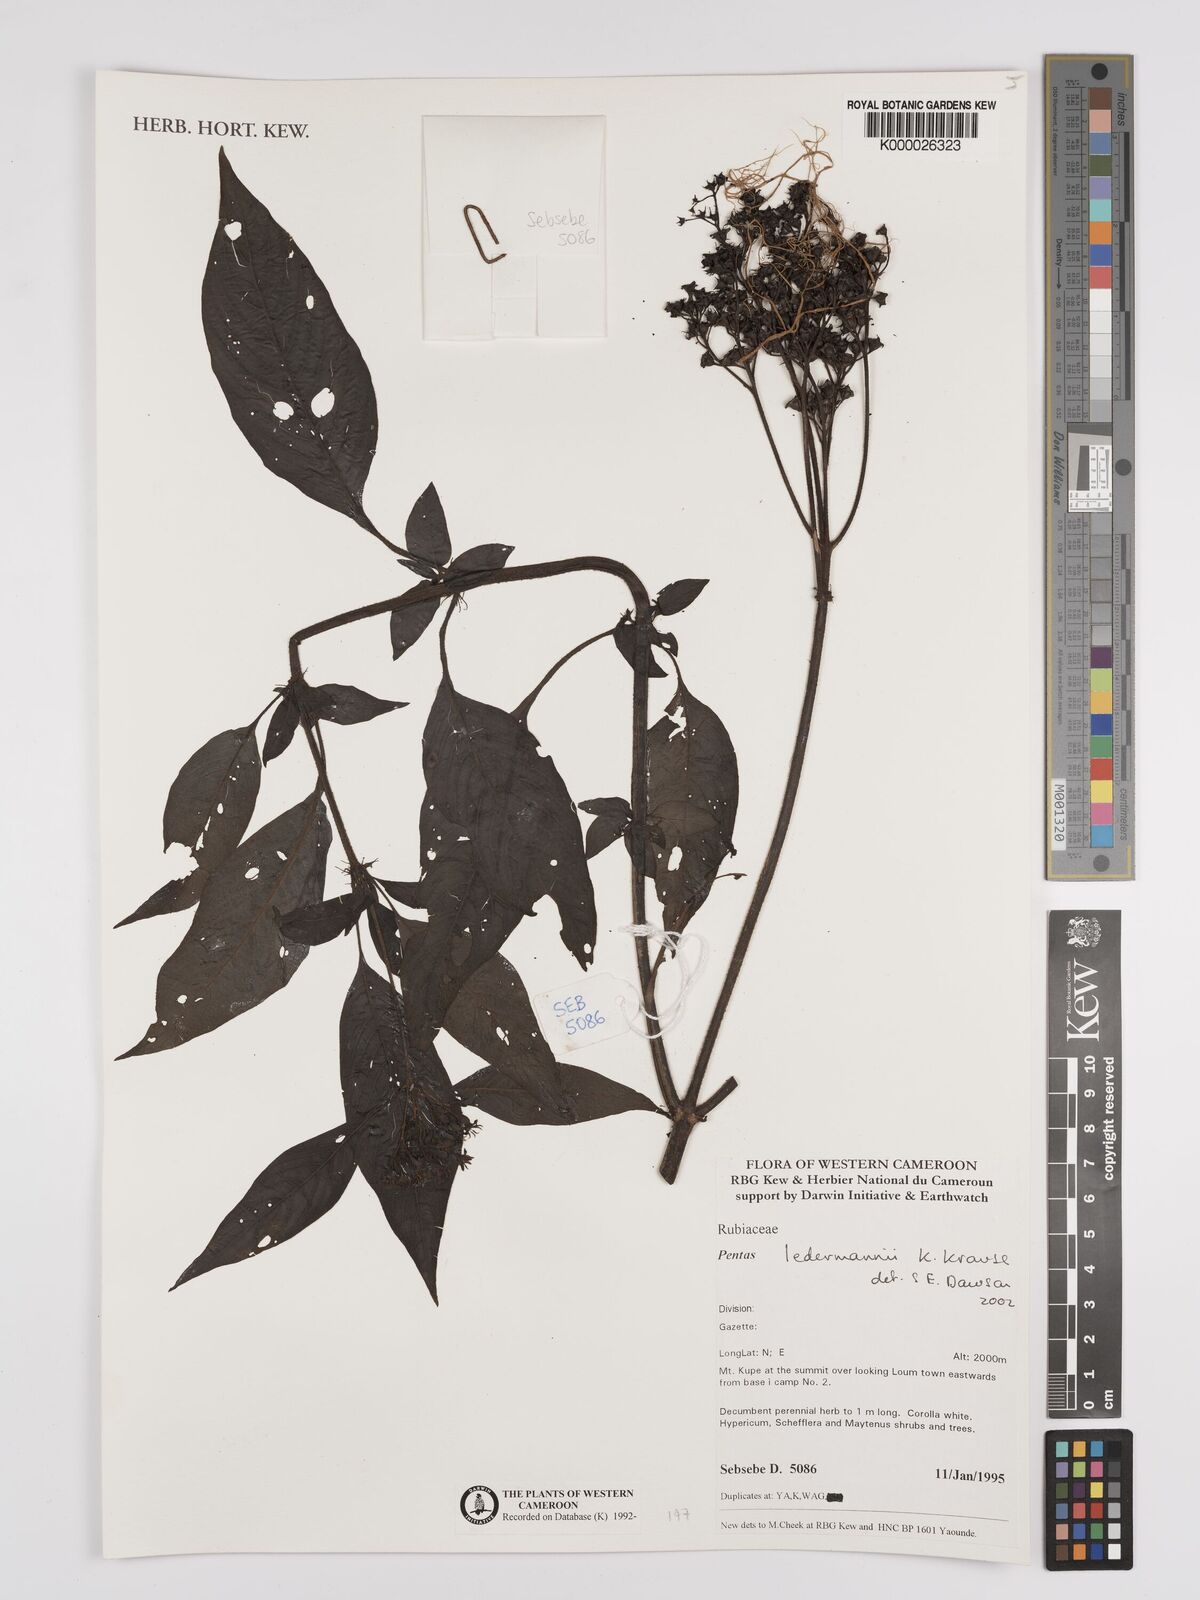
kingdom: Plantae
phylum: Tracheophyta
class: Magnoliopsida
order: Gentianales
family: Rubiaceae
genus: Phyllopentas
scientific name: Phyllopentas ledermannii
